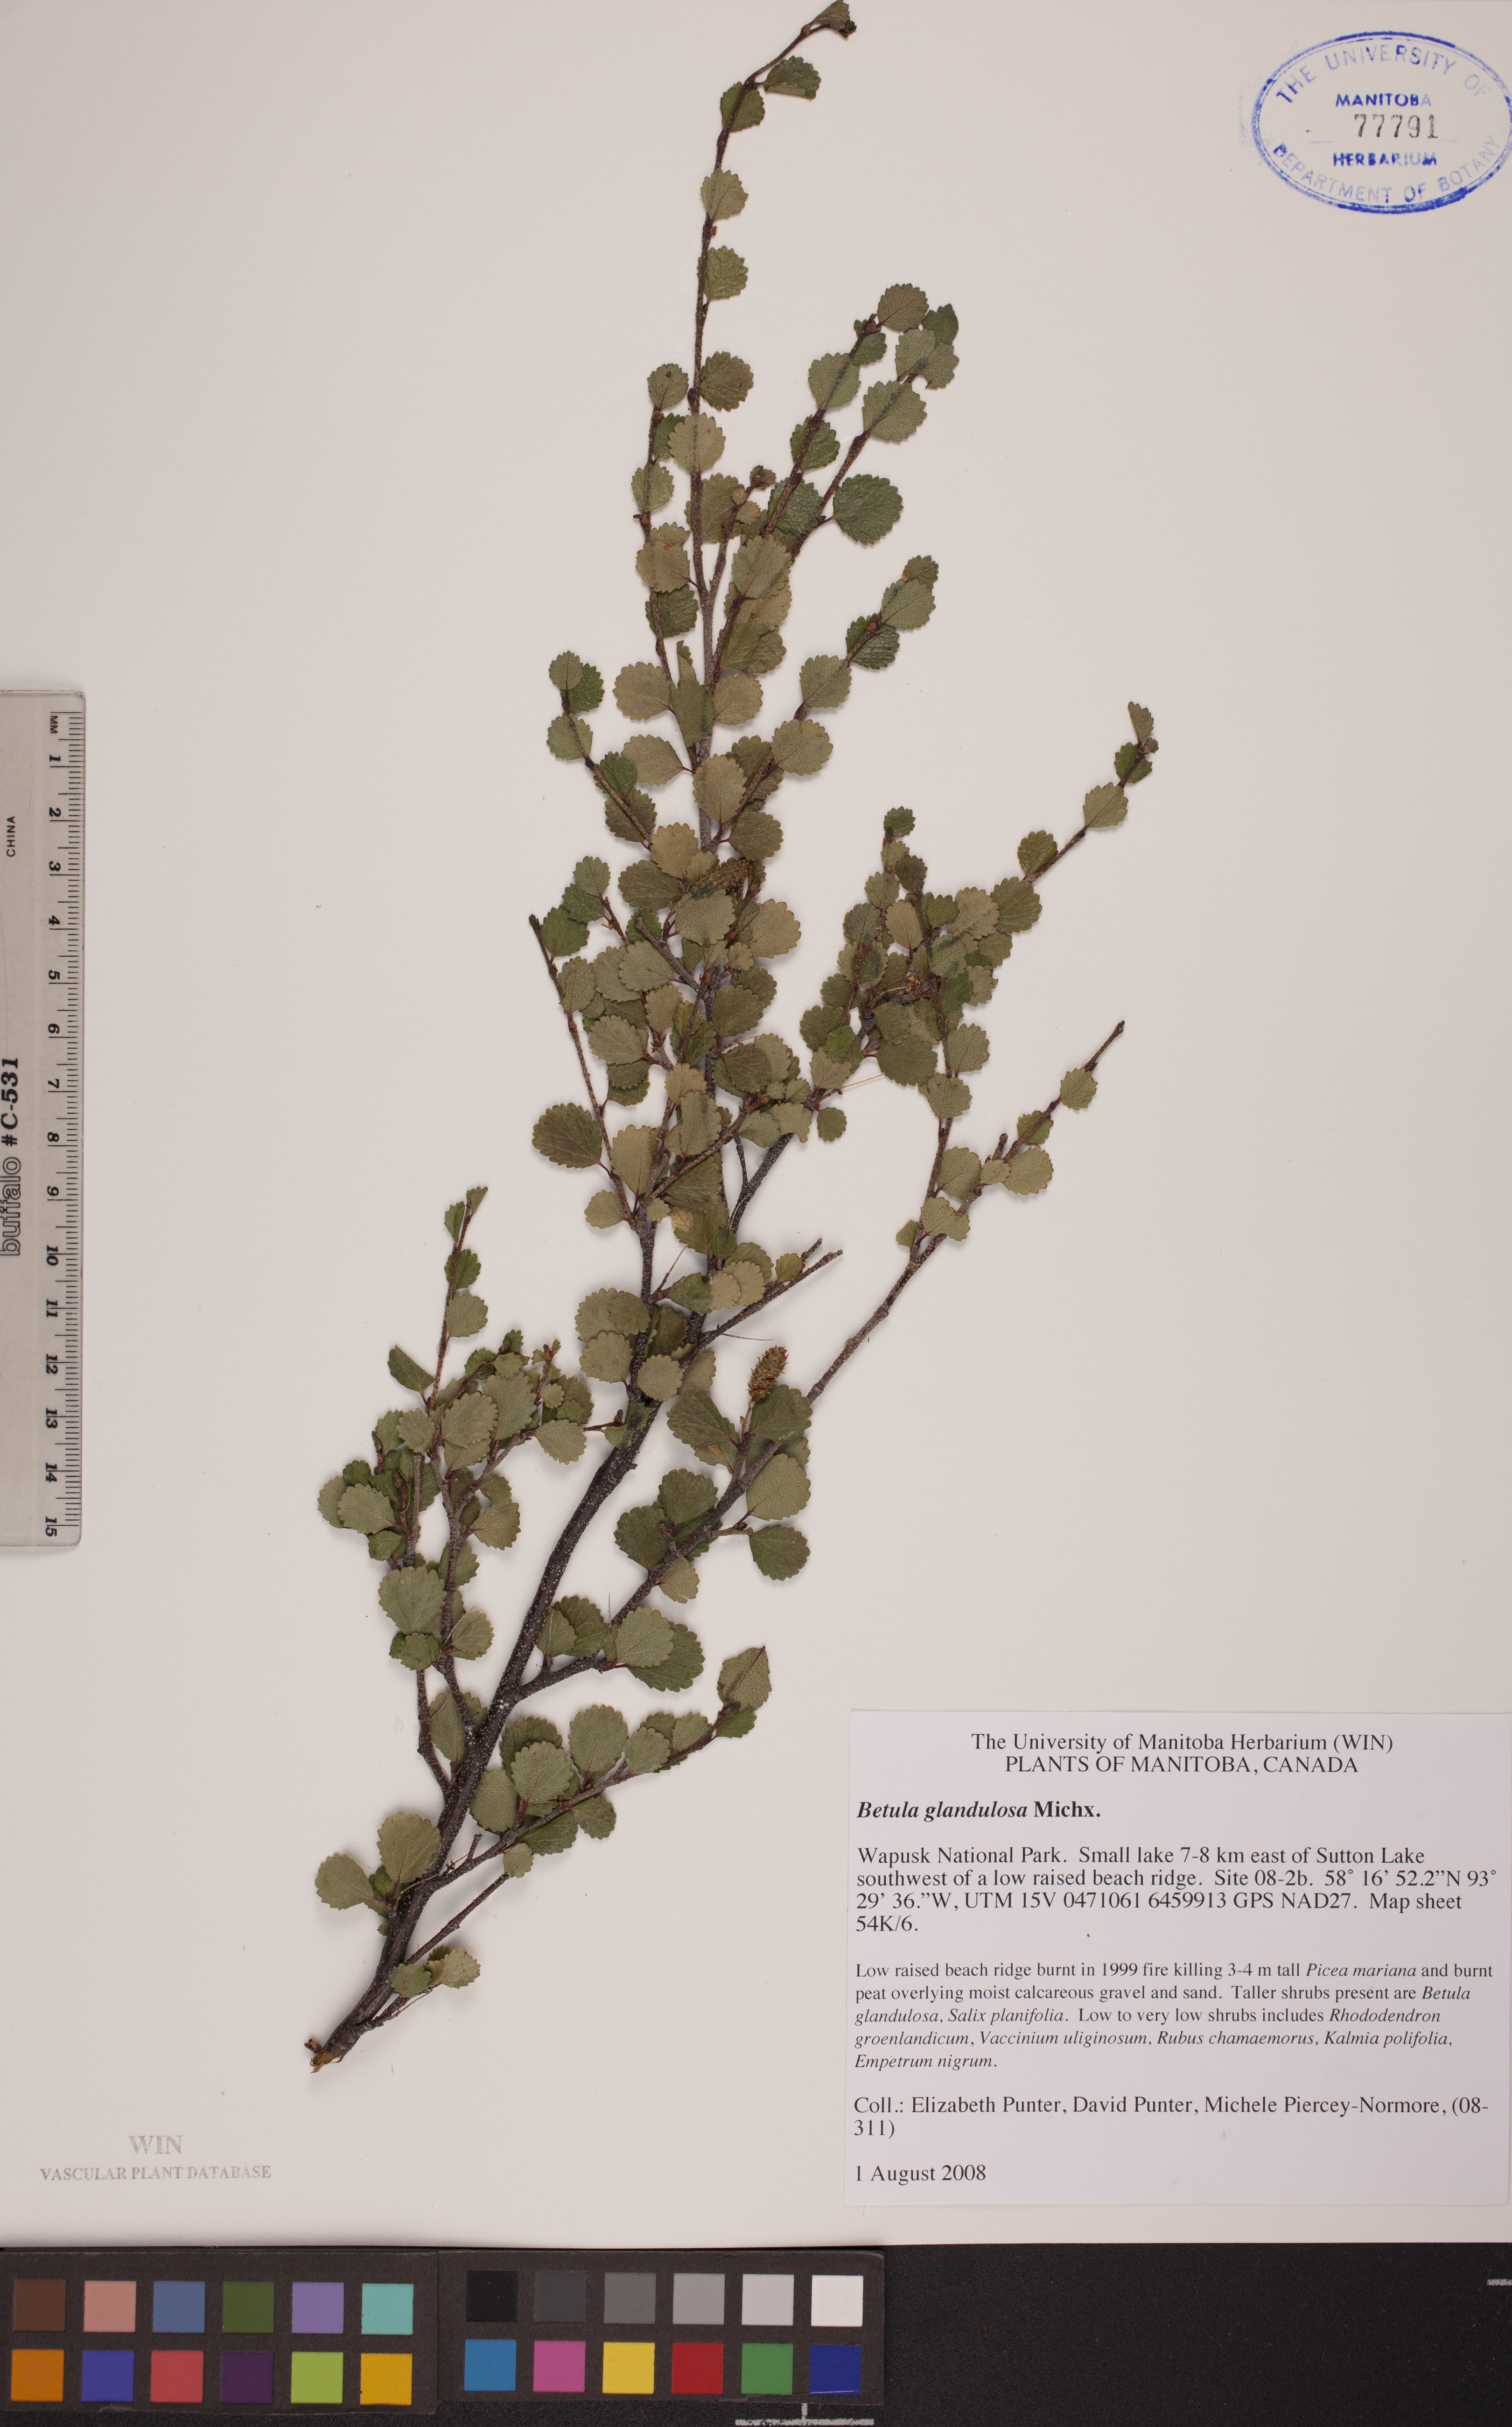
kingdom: Plantae
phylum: Tracheophyta
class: Magnoliopsida
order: Fagales
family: Betulaceae
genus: Betula
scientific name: Betula glandulosa
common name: Dwarf birch
